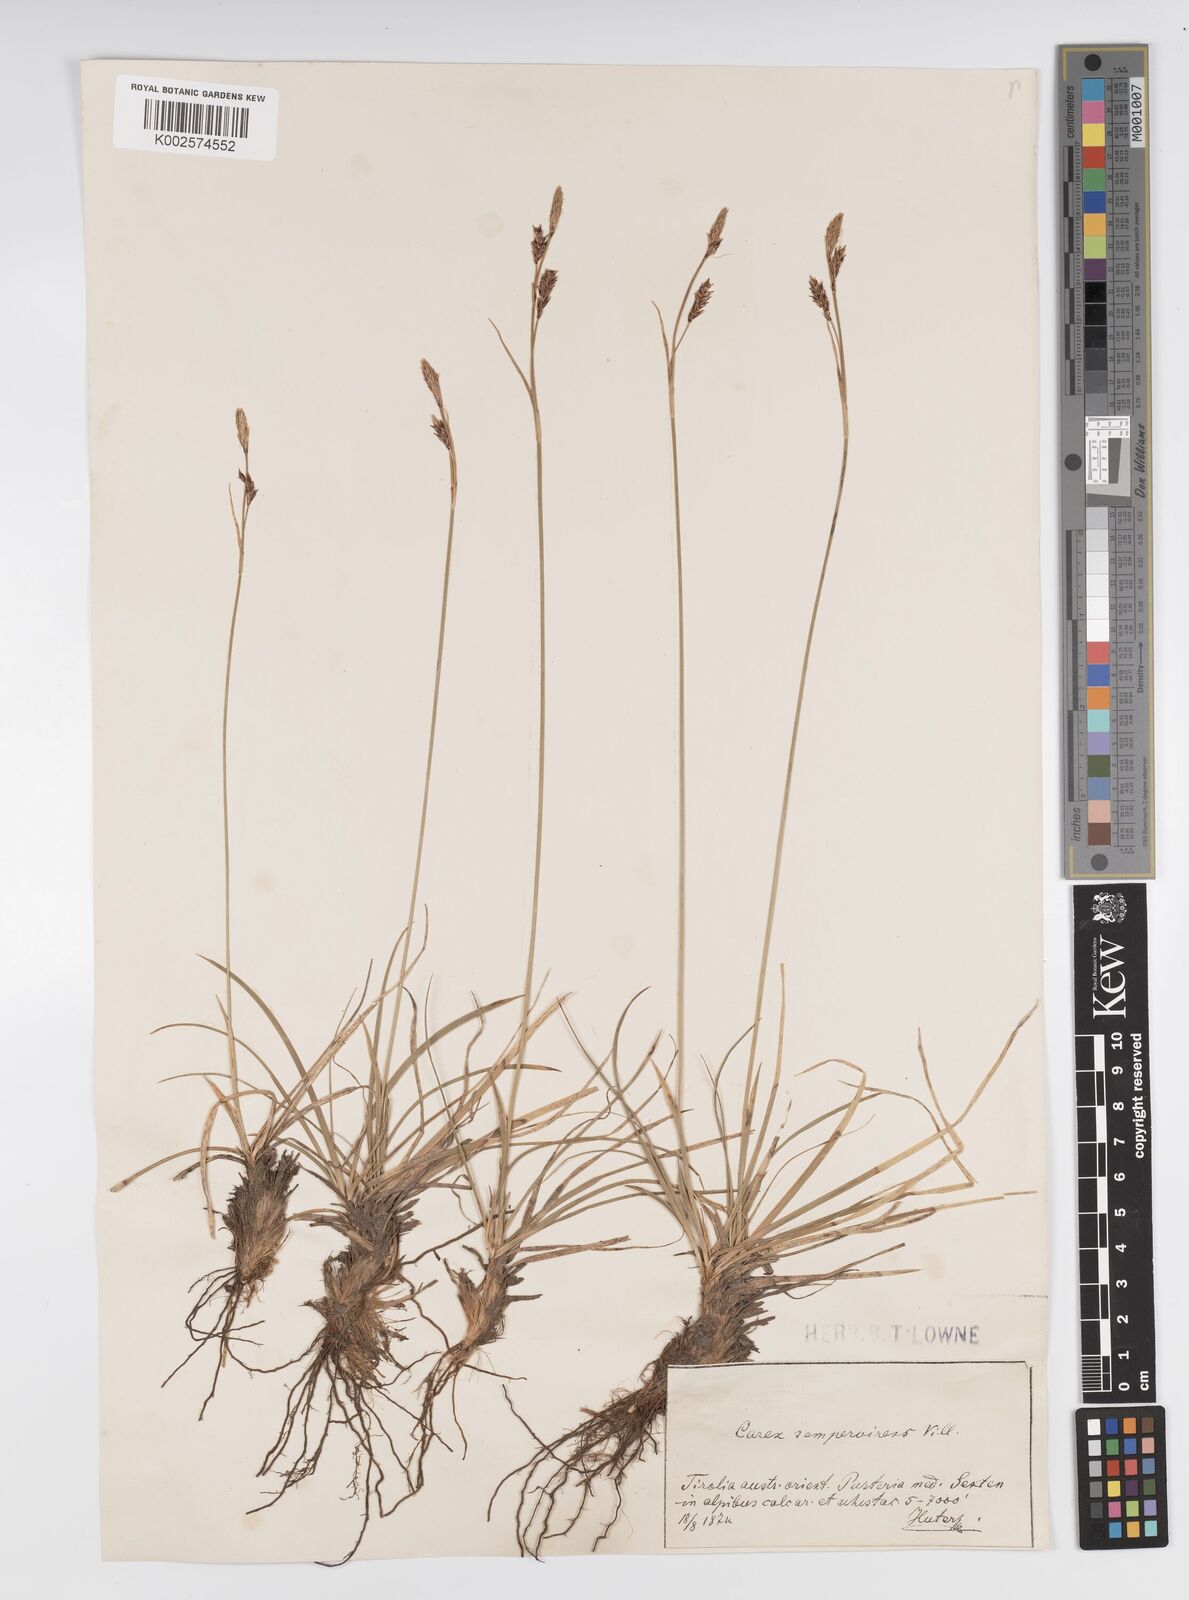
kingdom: Plantae
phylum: Tracheophyta
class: Liliopsida
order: Poales
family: Cyperaceae
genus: Carex
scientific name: Carex sempervirens
